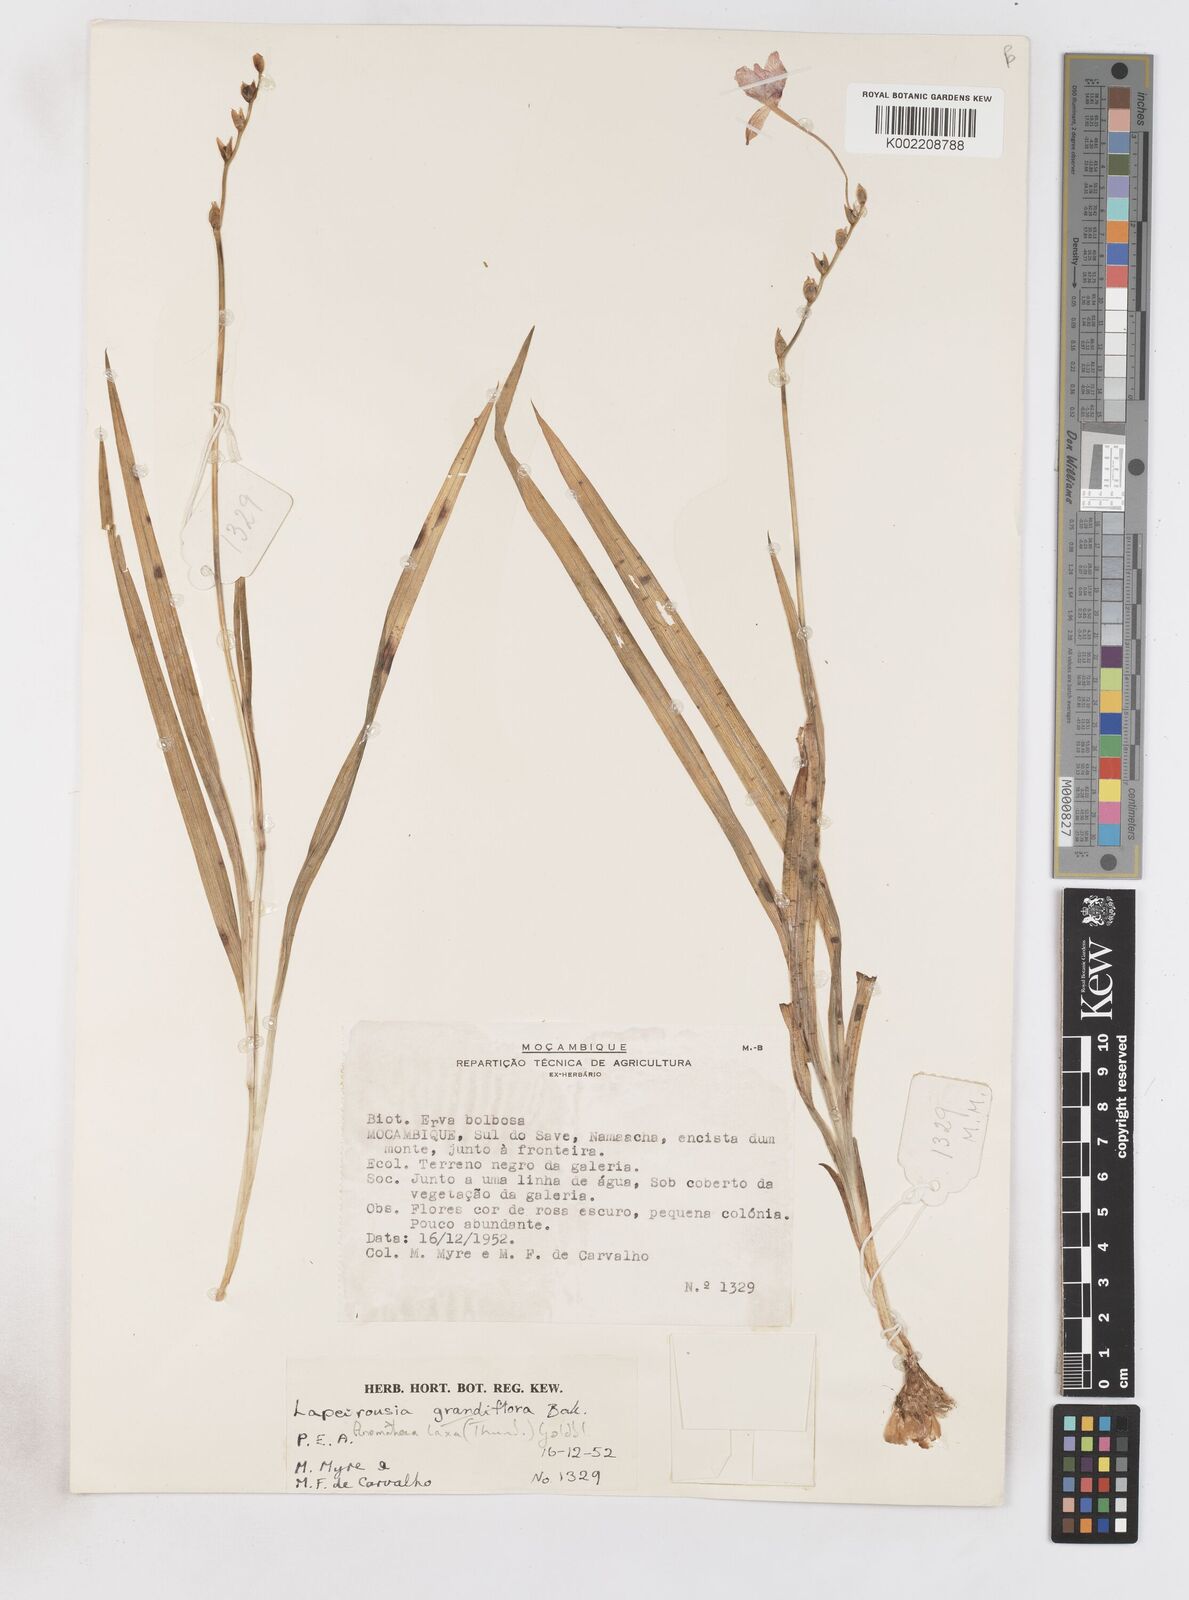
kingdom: Plantae
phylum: Tracheophyta
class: Liliopsida
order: Asparagales
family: Iridaceae
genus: Freesia
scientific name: Freesia laxa
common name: False freesia
